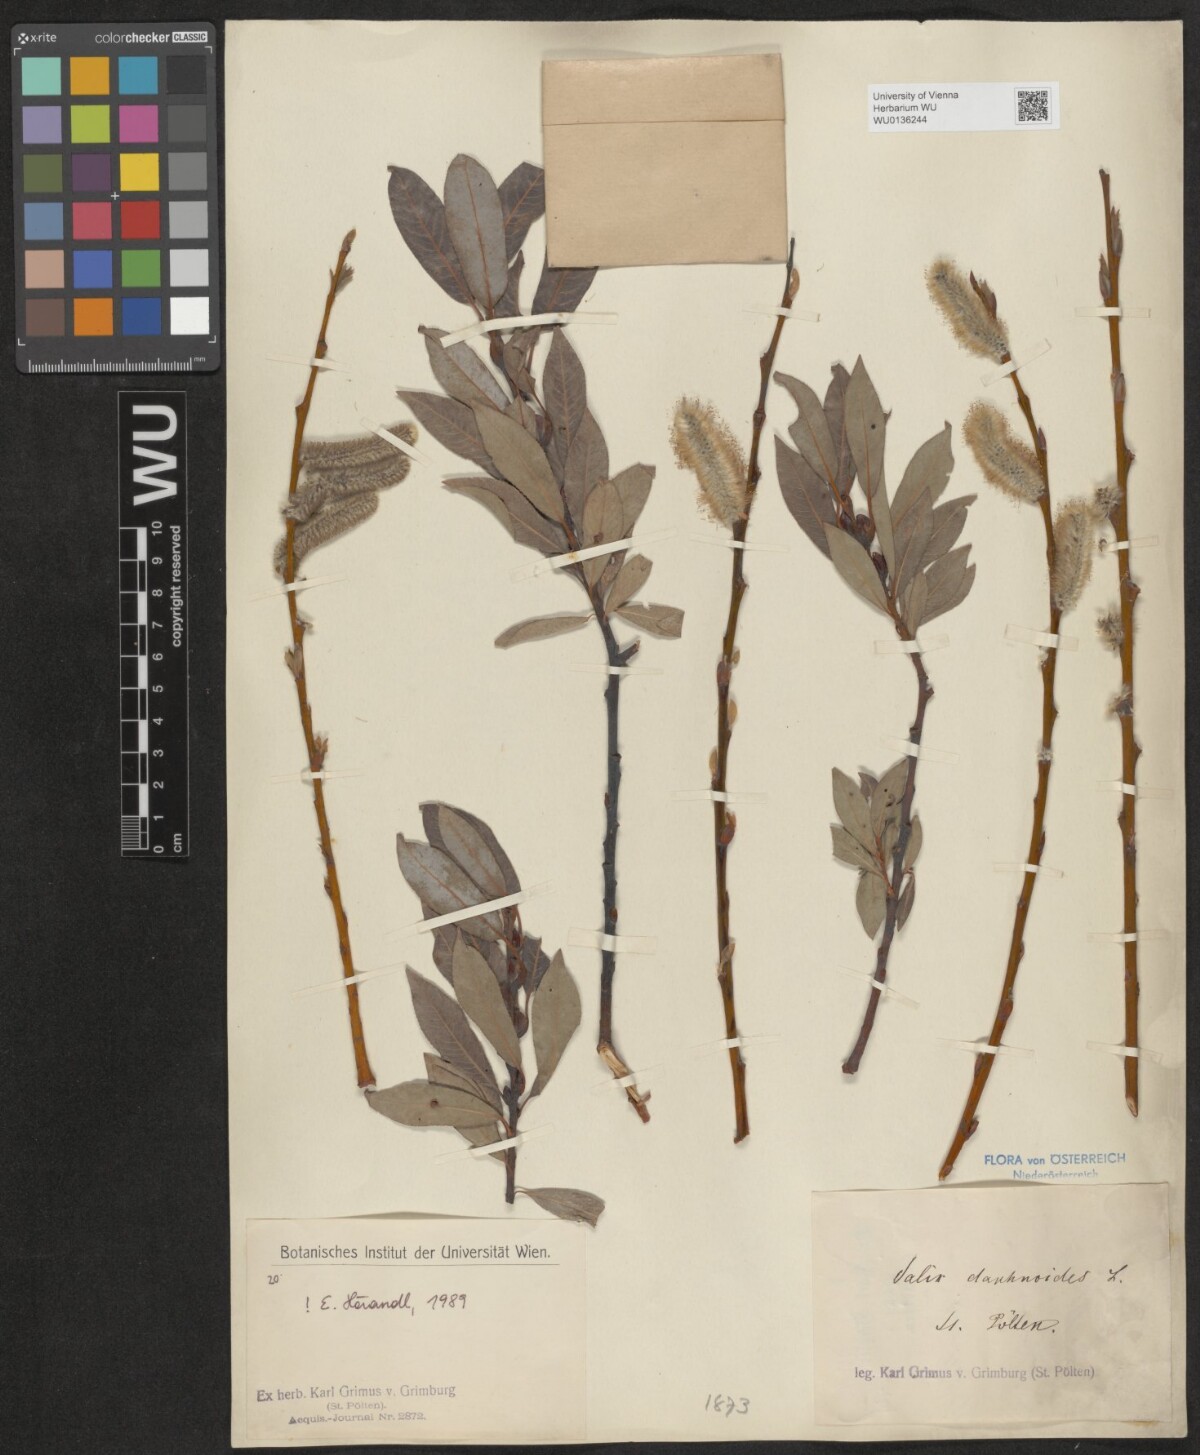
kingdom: Plantae
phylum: Tracheophyta
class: Magnoliopsida
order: Malpighiales
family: Salicaceae
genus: Salix
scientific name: Salix daphnoides
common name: European violet-willow
